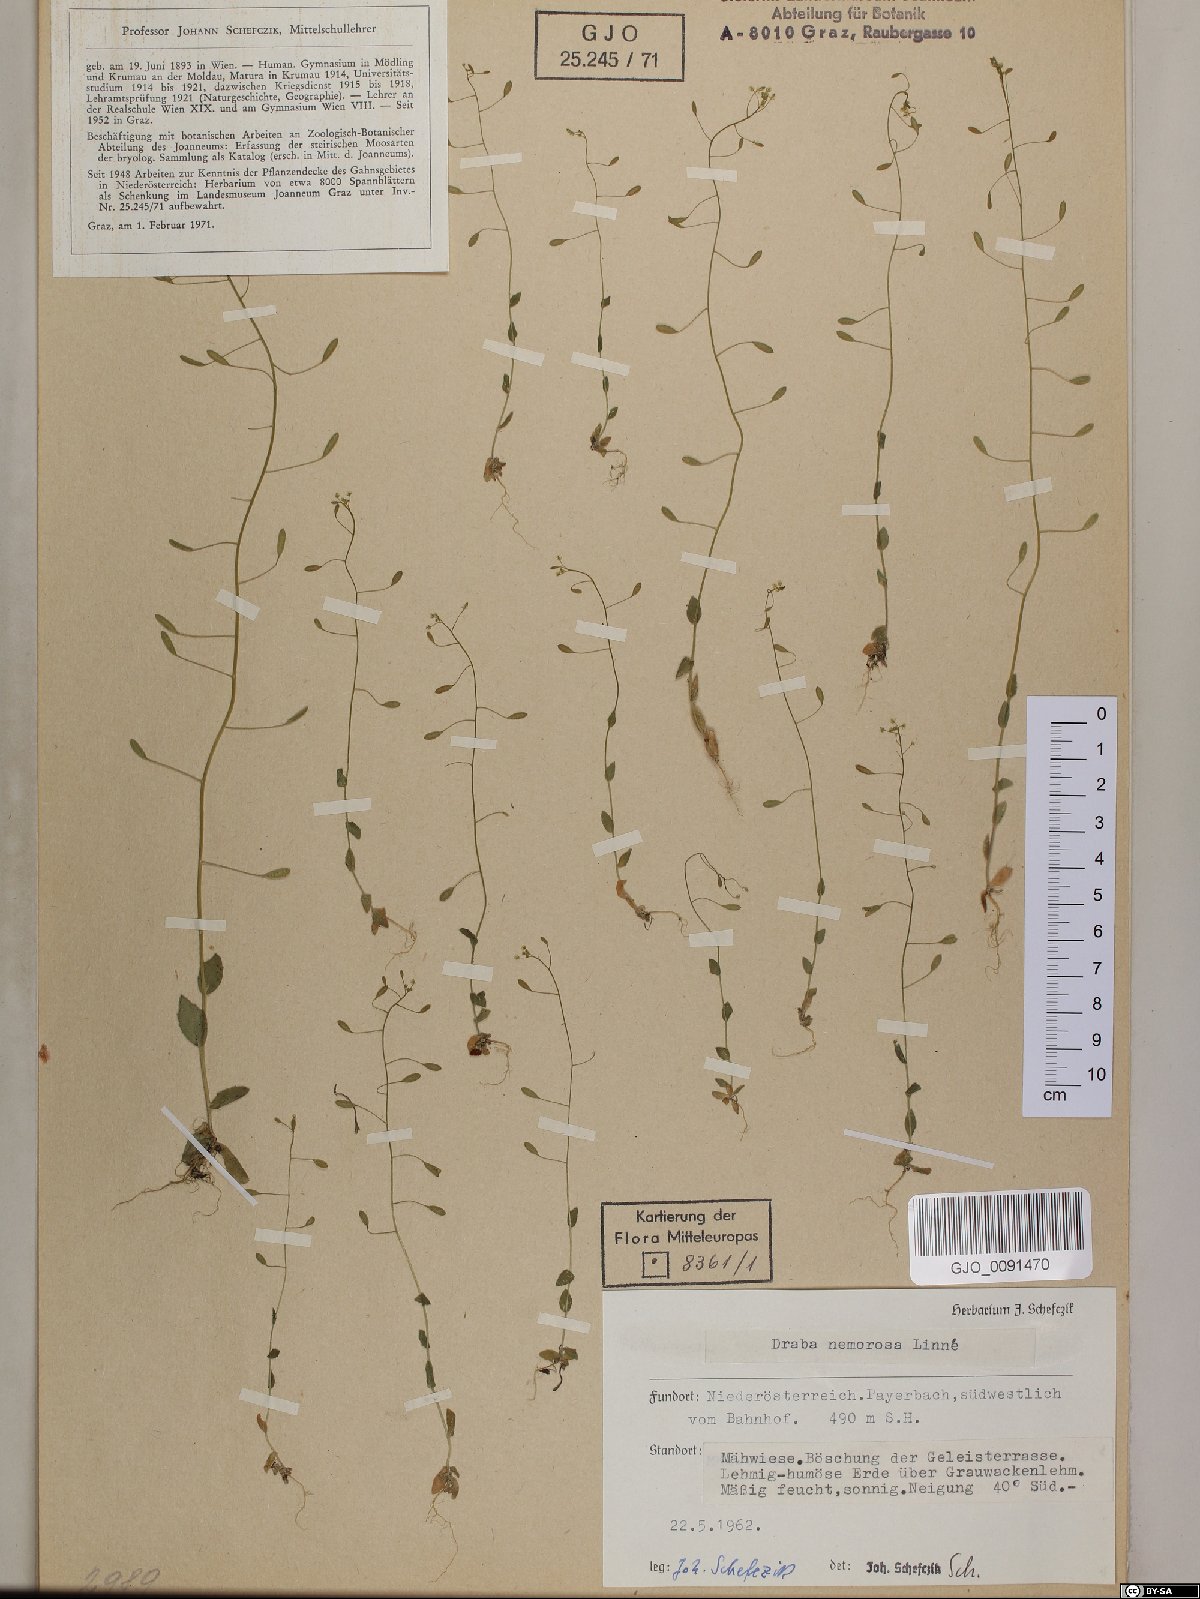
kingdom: Plantae
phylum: Tracheophyta
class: Magnoliopsida
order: Brassicales
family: Brassicaceae
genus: Draba
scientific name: Draba nemorosa
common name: Wood whitlow-grass
